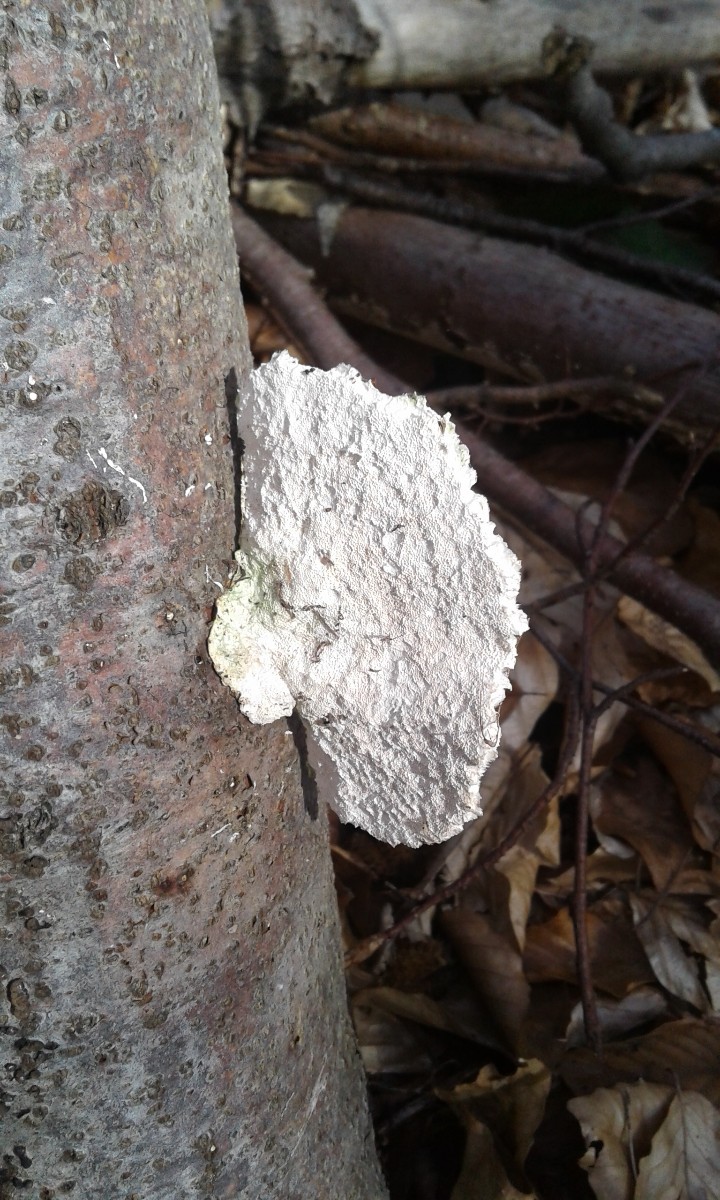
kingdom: Fungi
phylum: Basidiomycota
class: Agaricomycetes
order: Polyporales
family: Polyporaceae
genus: Trametes
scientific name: Trametes hirsuta
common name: håret læderporesvamp
